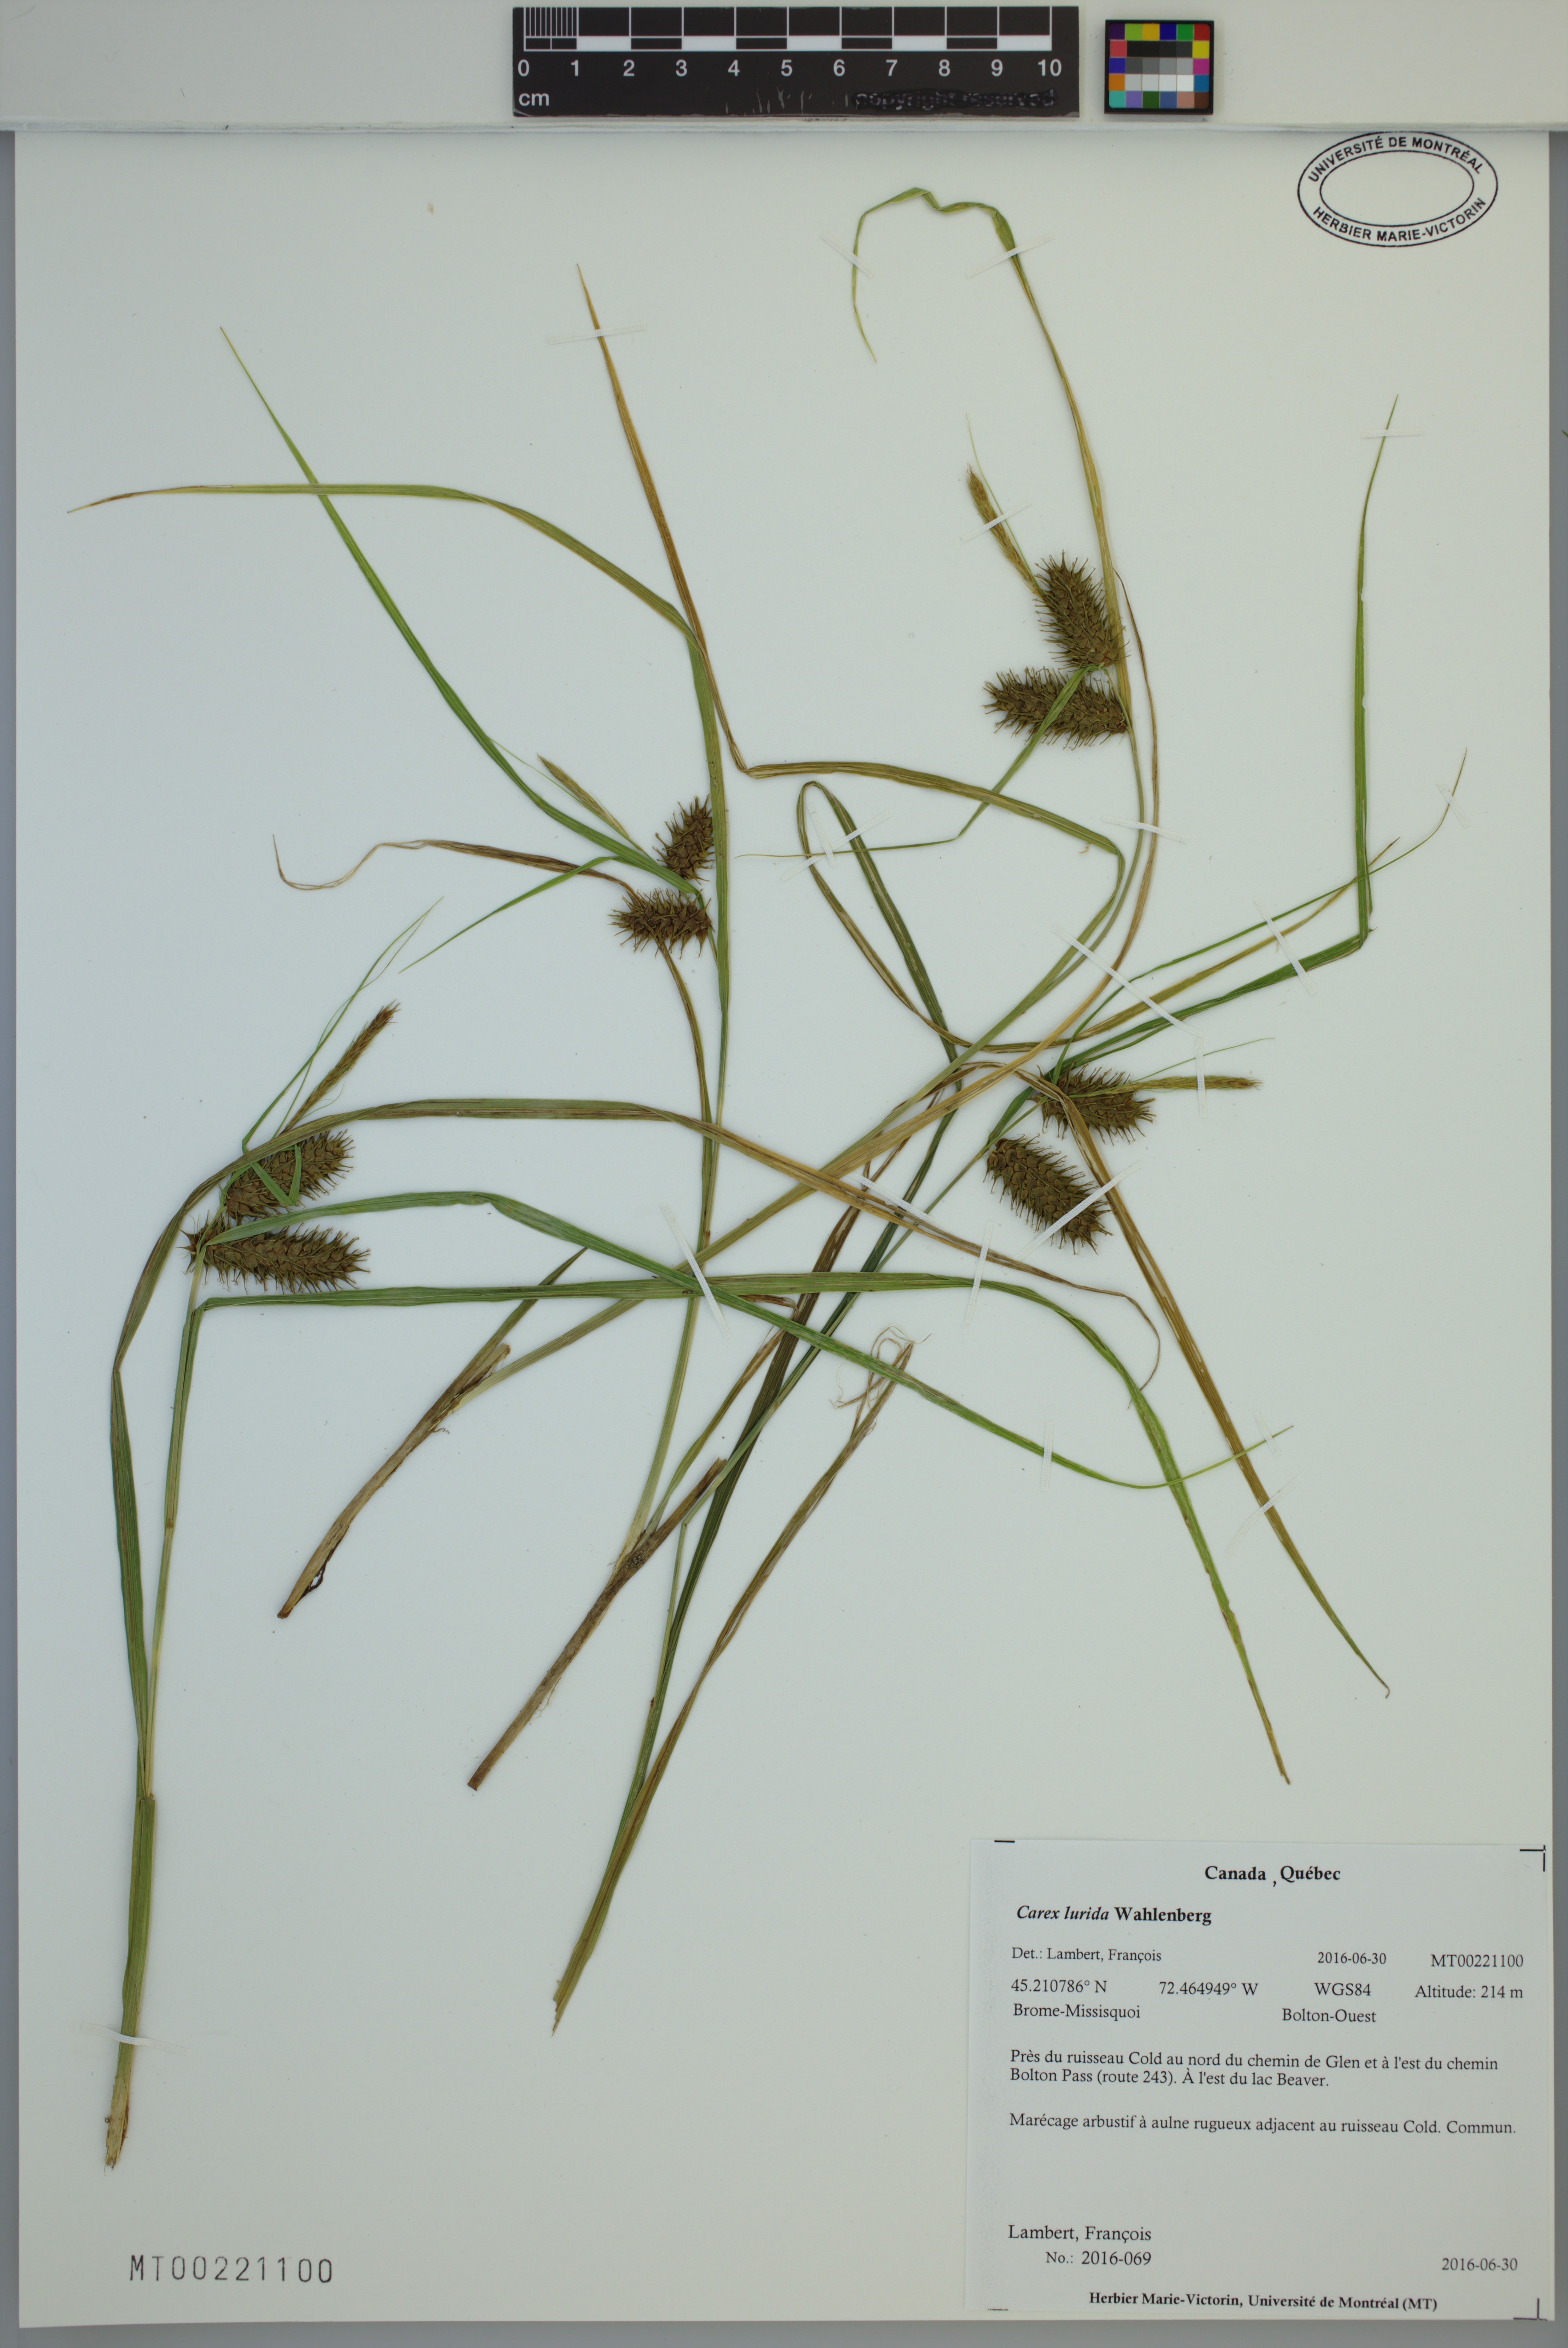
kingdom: Plantae
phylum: Tracheophyta
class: Liliopsida
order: Poales
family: Cyperaceae
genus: Carex
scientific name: Carex lurida
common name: Sallow sedge
